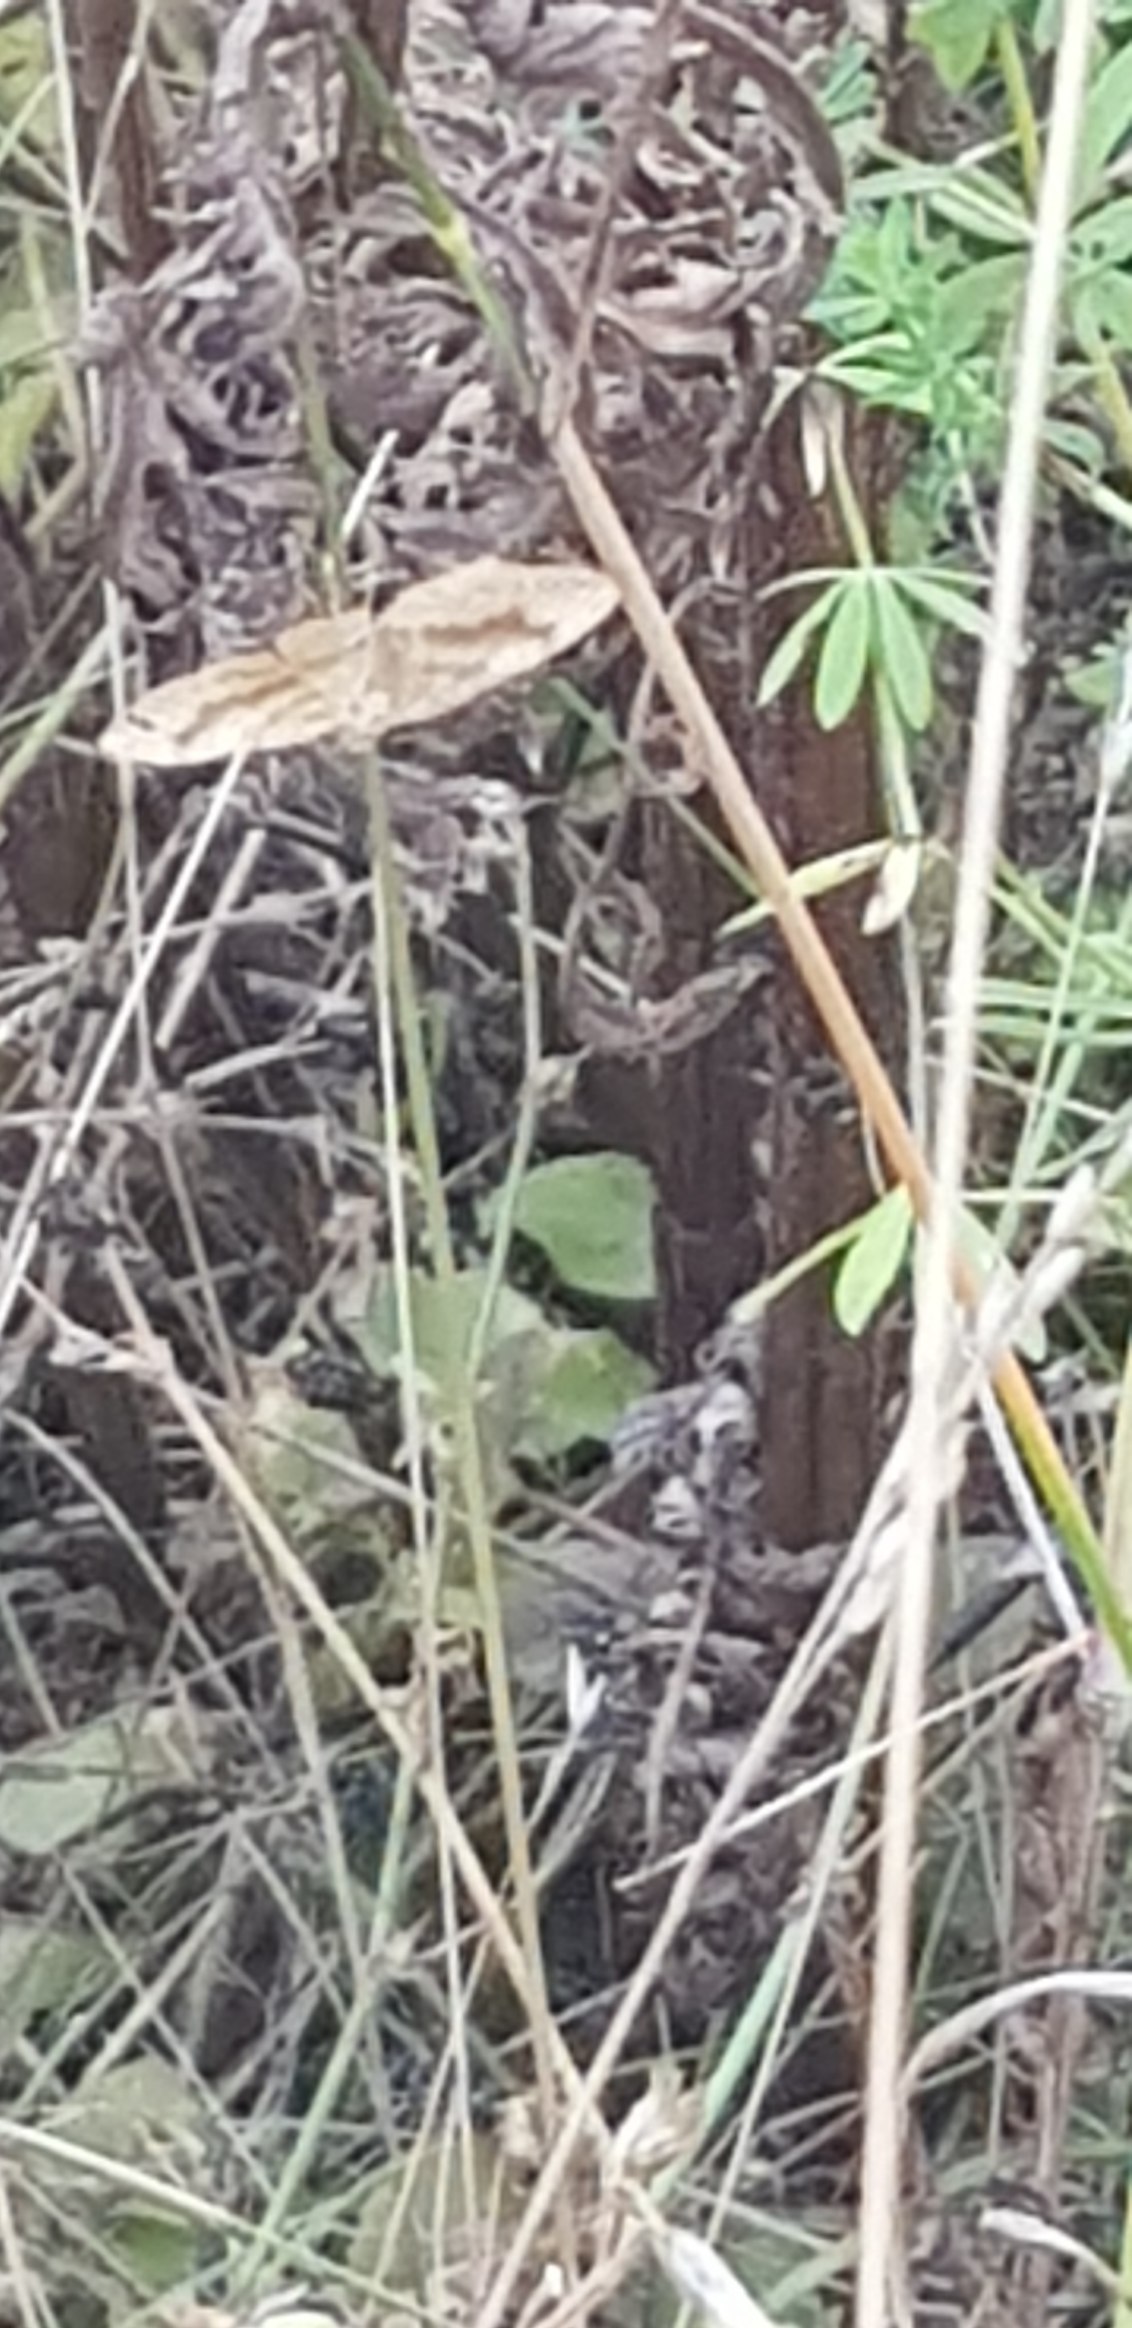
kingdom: Animalia
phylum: Arthropoda
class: Insecta
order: Lepidoptera
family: Geometridae
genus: Scotopteryx
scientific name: Scotopteryx chenopodiata
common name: Almindelig spidsvingemåler
